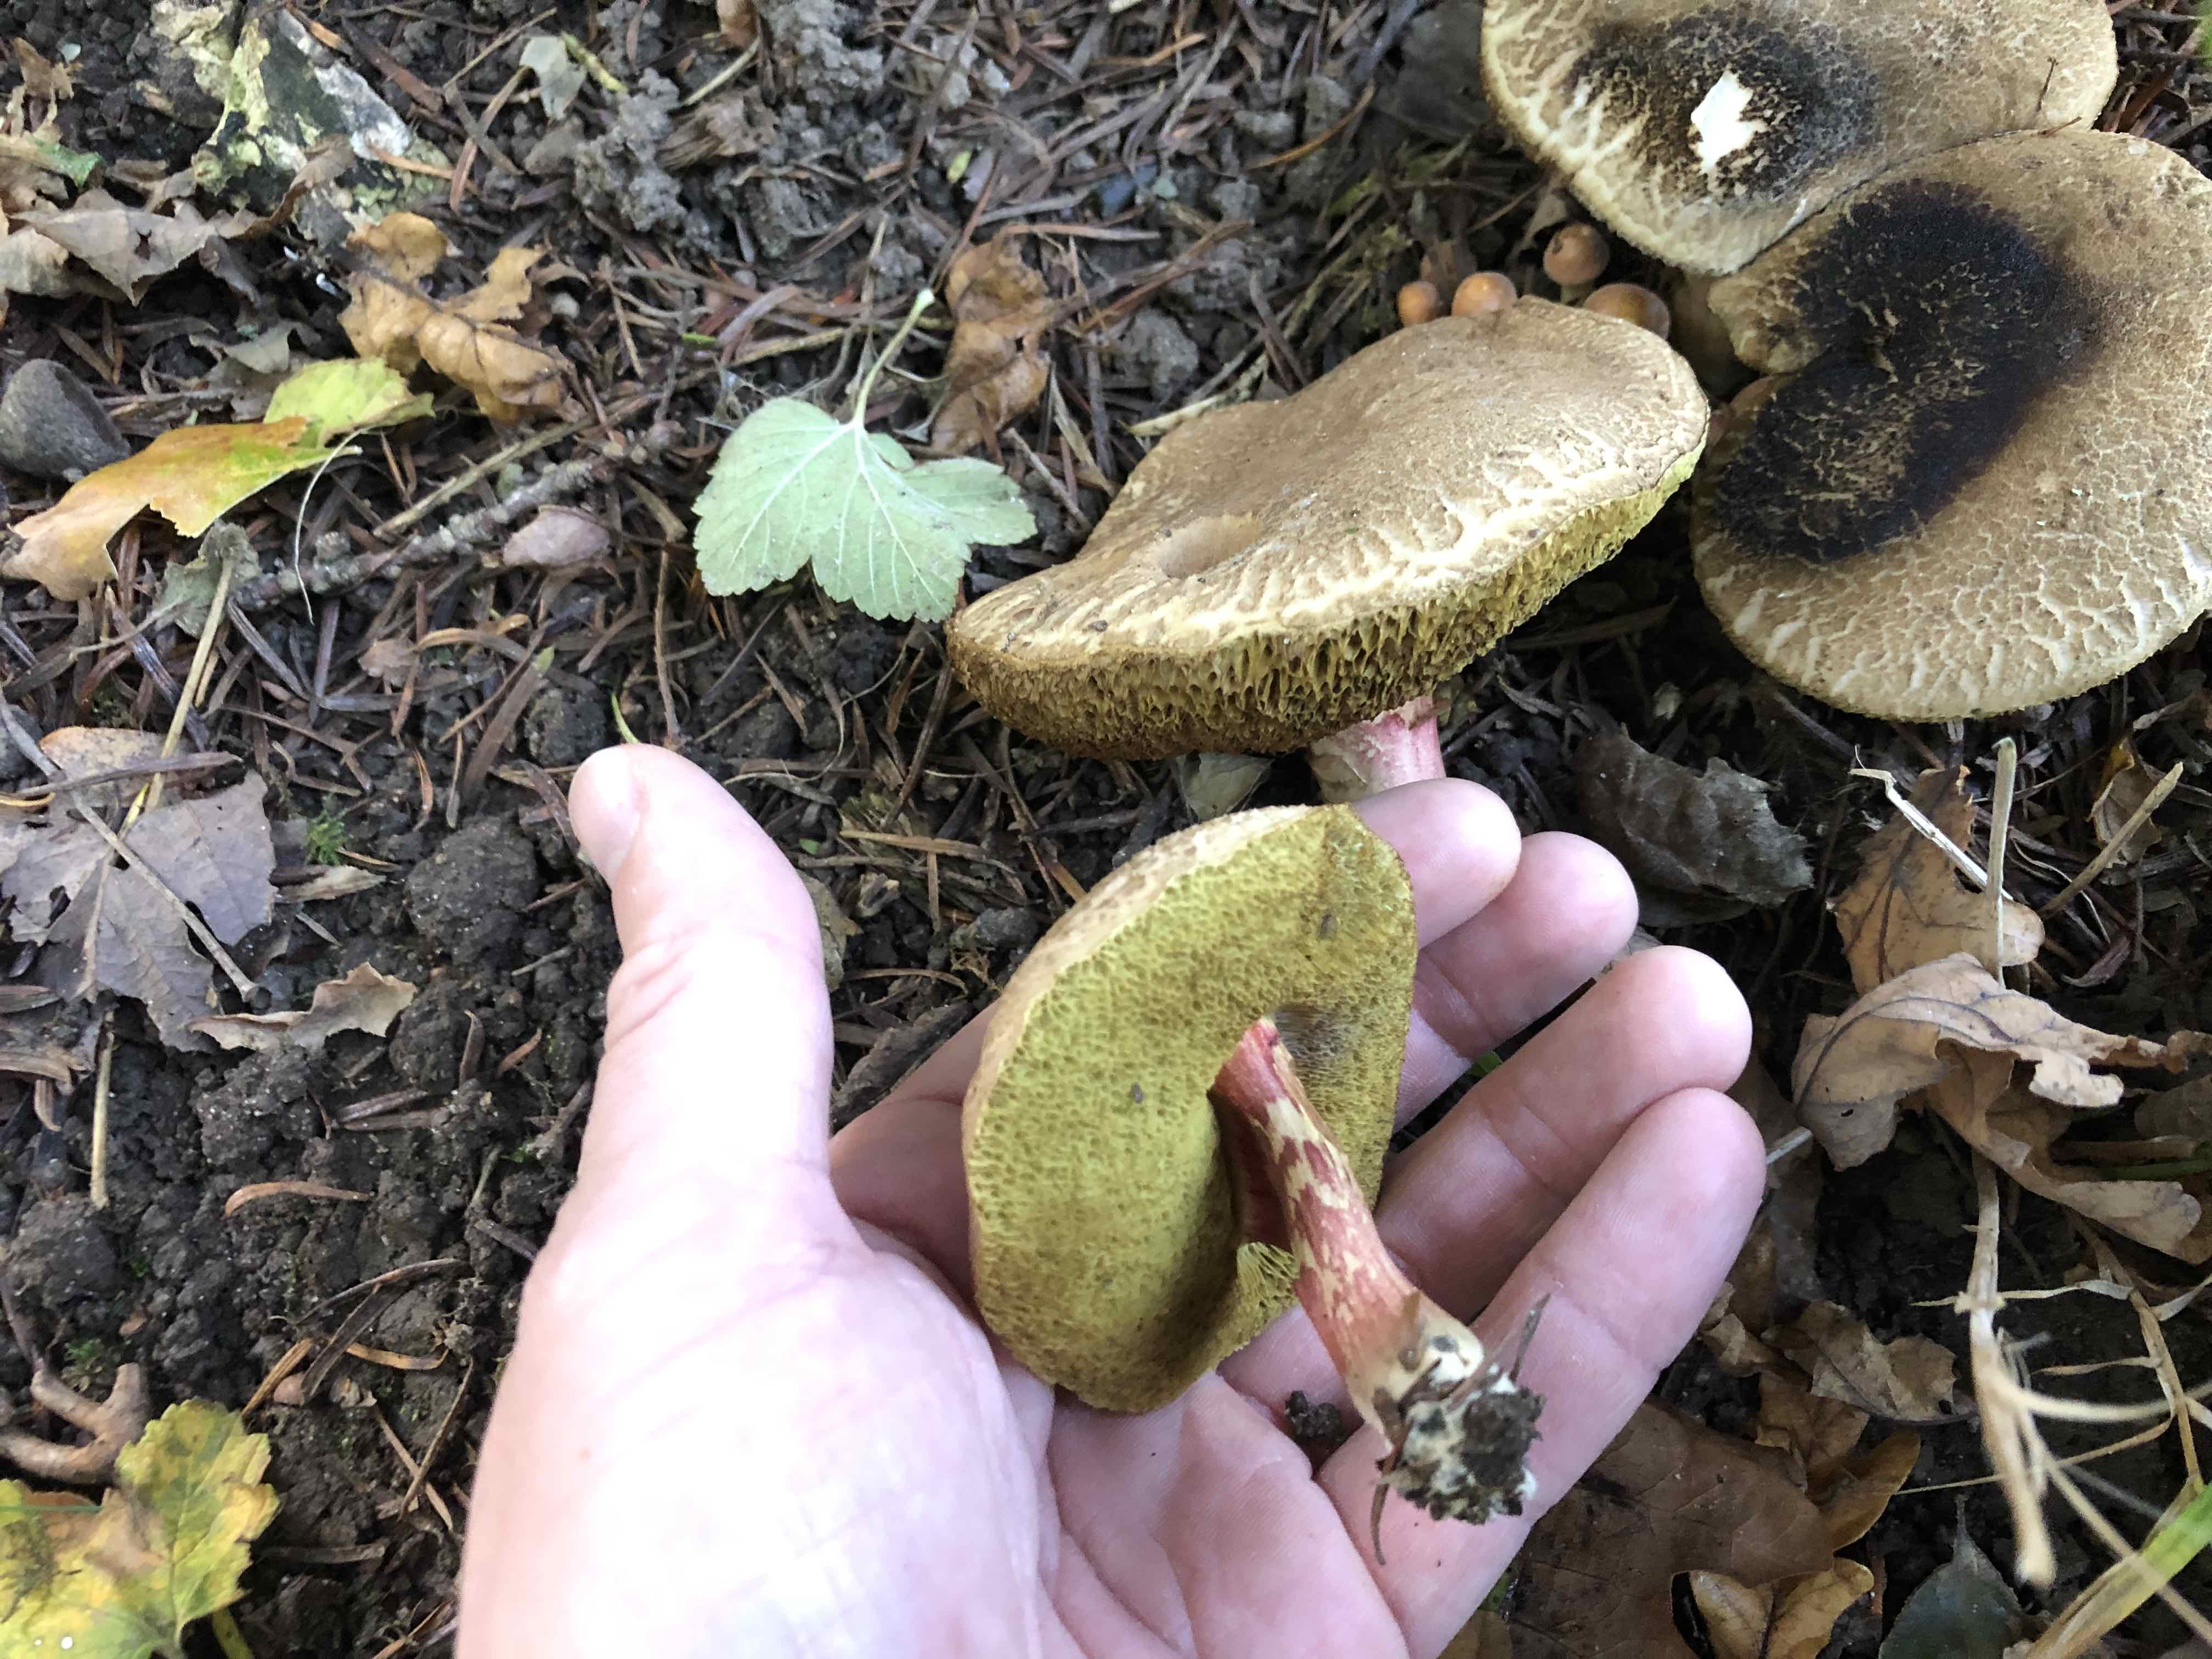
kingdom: Fungi
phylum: Basidiomycota
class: Agaricomycetes
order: Boletales
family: Boletaceae
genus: Xerocomellus
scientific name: Xerocomellus
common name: dværgrørhat
